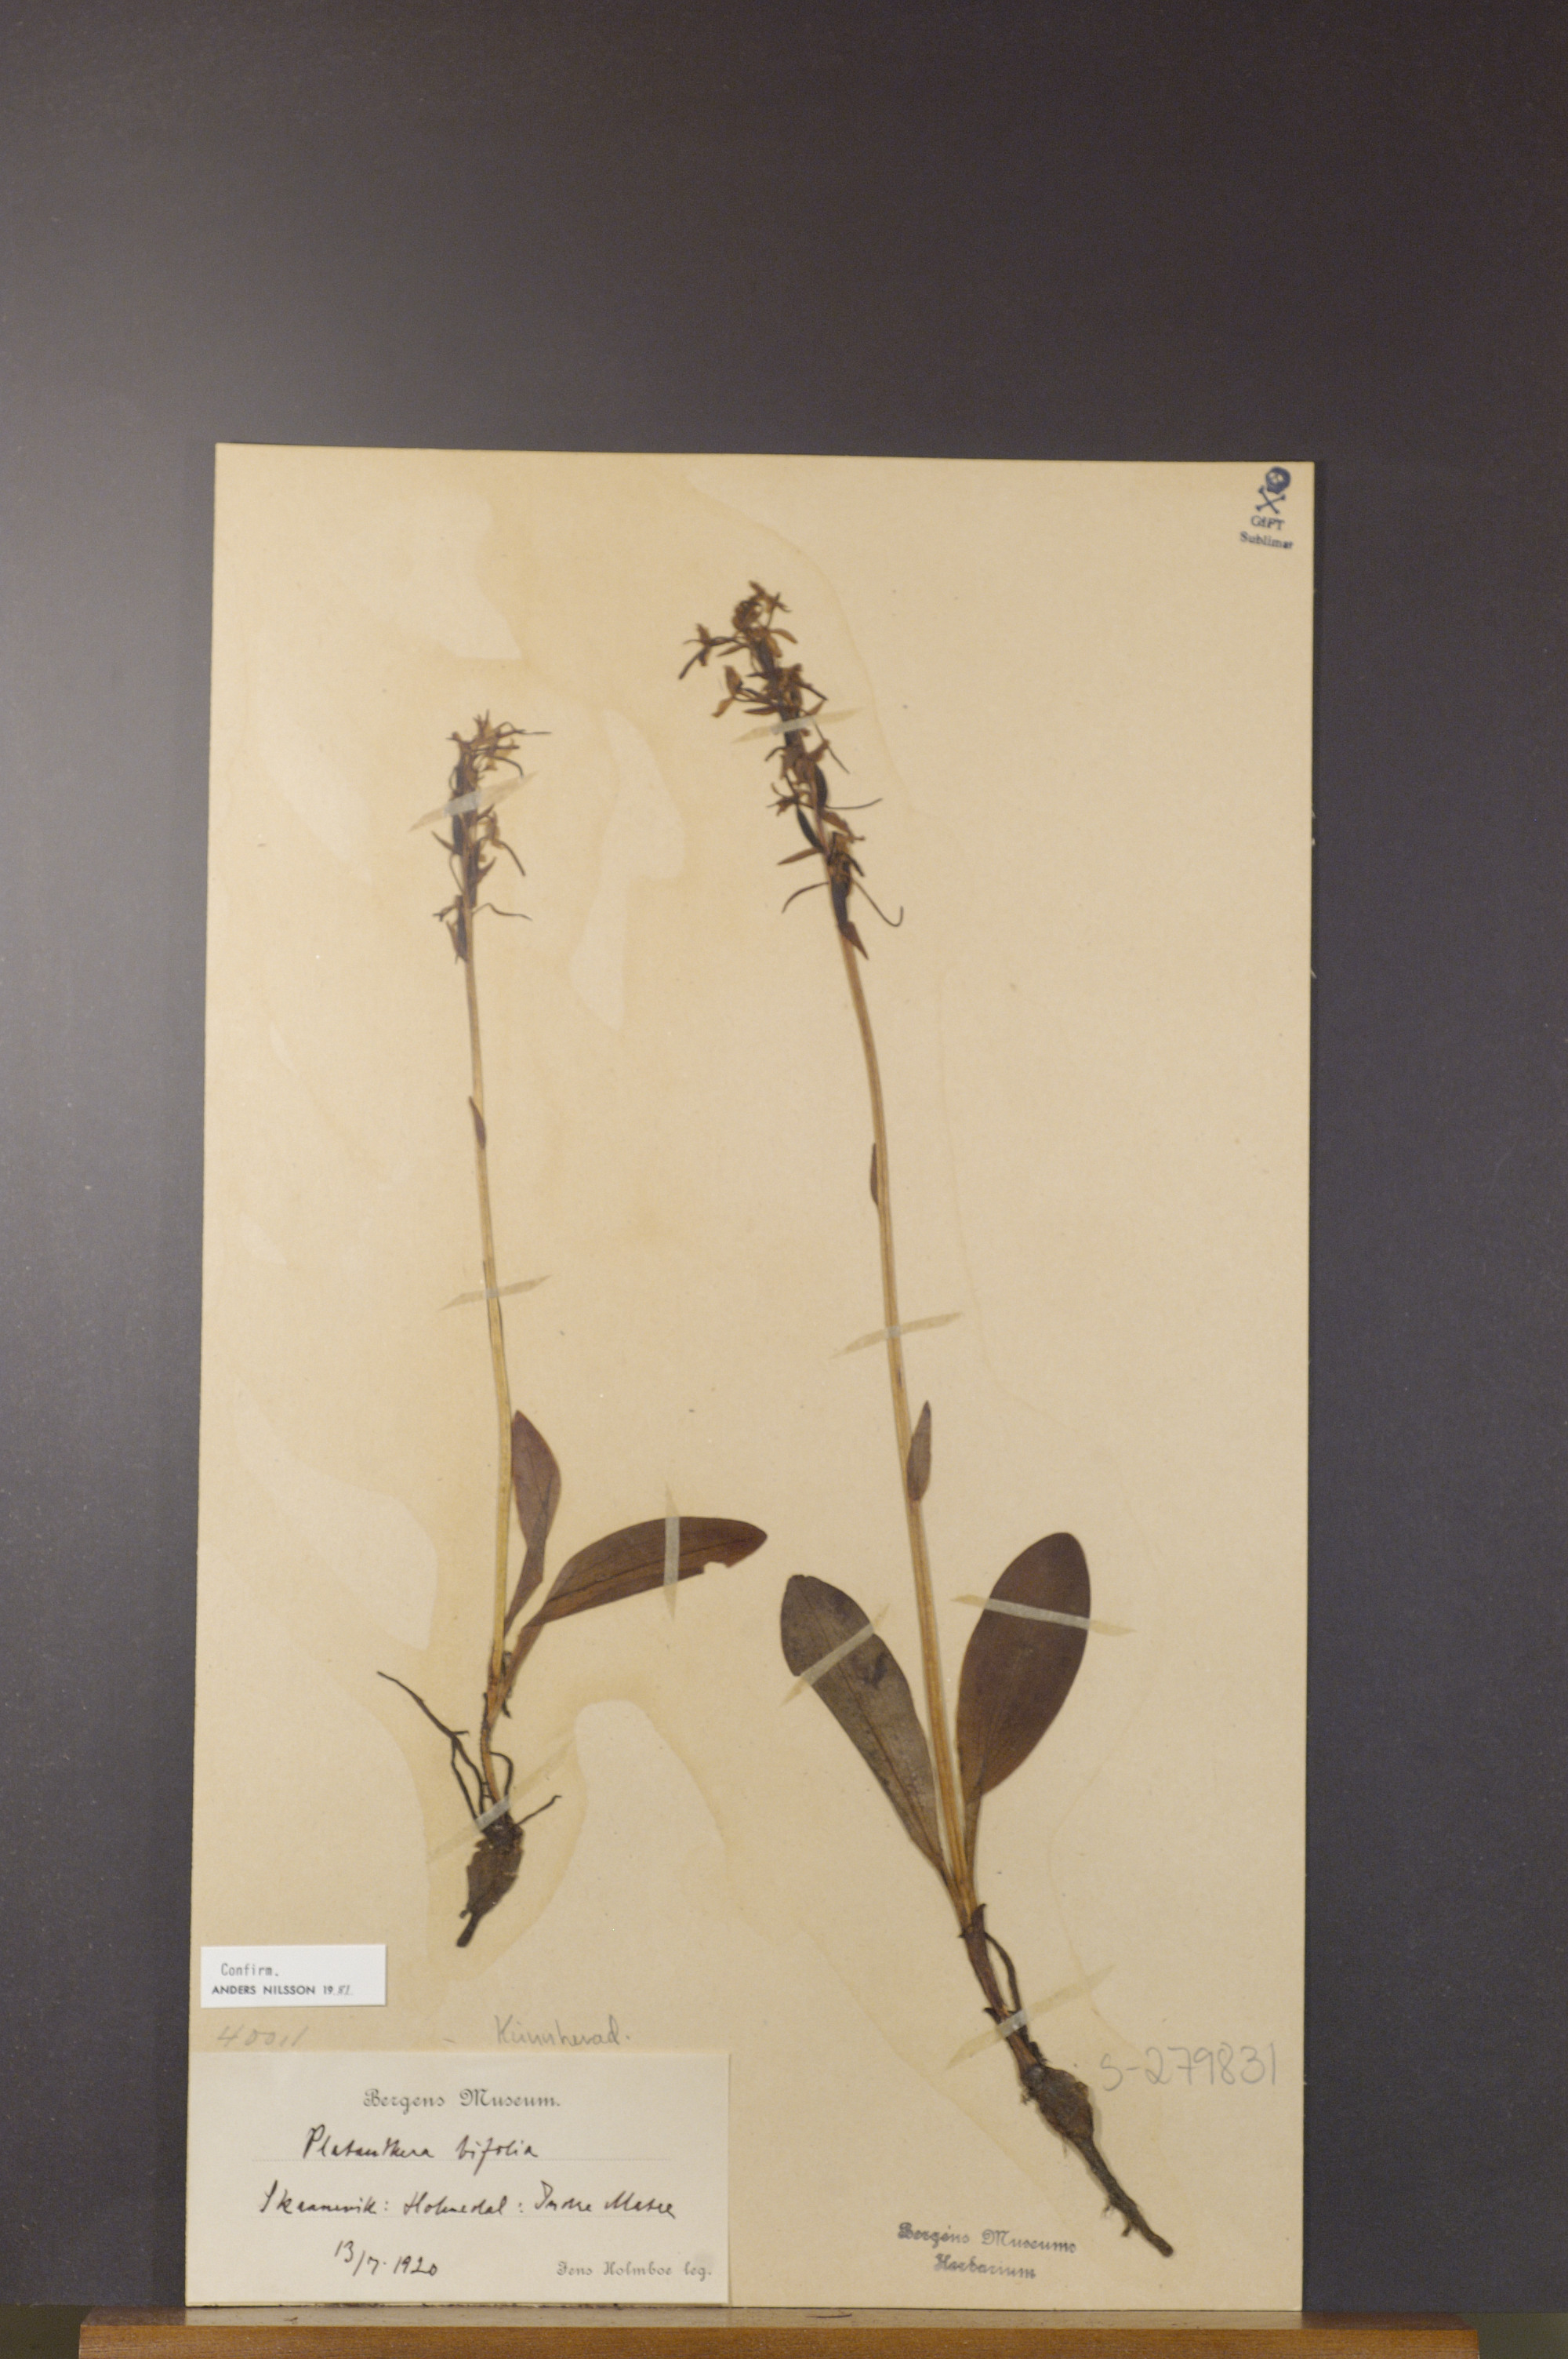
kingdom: Plantae
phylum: Tracheophyta
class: Liliopsida
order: Asparagales
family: Orchidaceae
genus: Platanthera
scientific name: Platanthera bifolia
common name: Lesser butterfly-orchid
